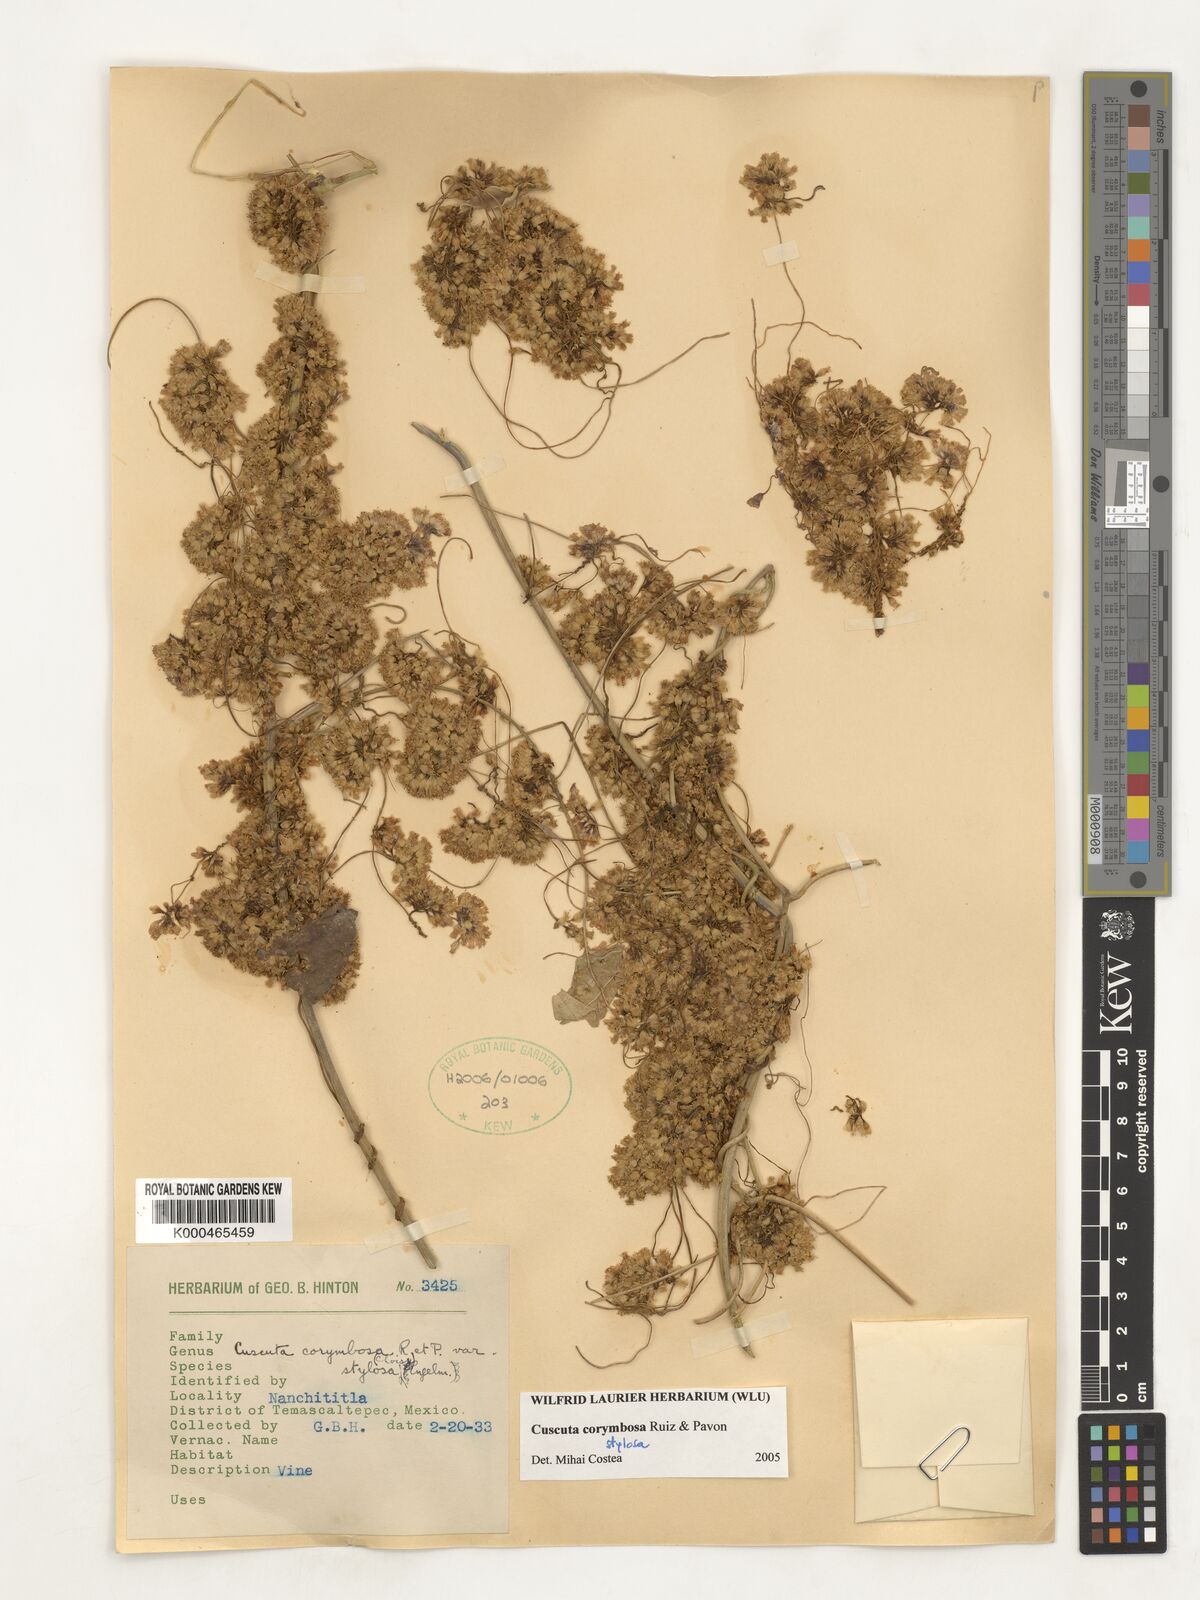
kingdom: Plantae
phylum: Tracheophyta
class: Magnoliopsida
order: Solanales
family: Convolvulaceae
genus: Cuscuta
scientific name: Cuscuta corymbosa
